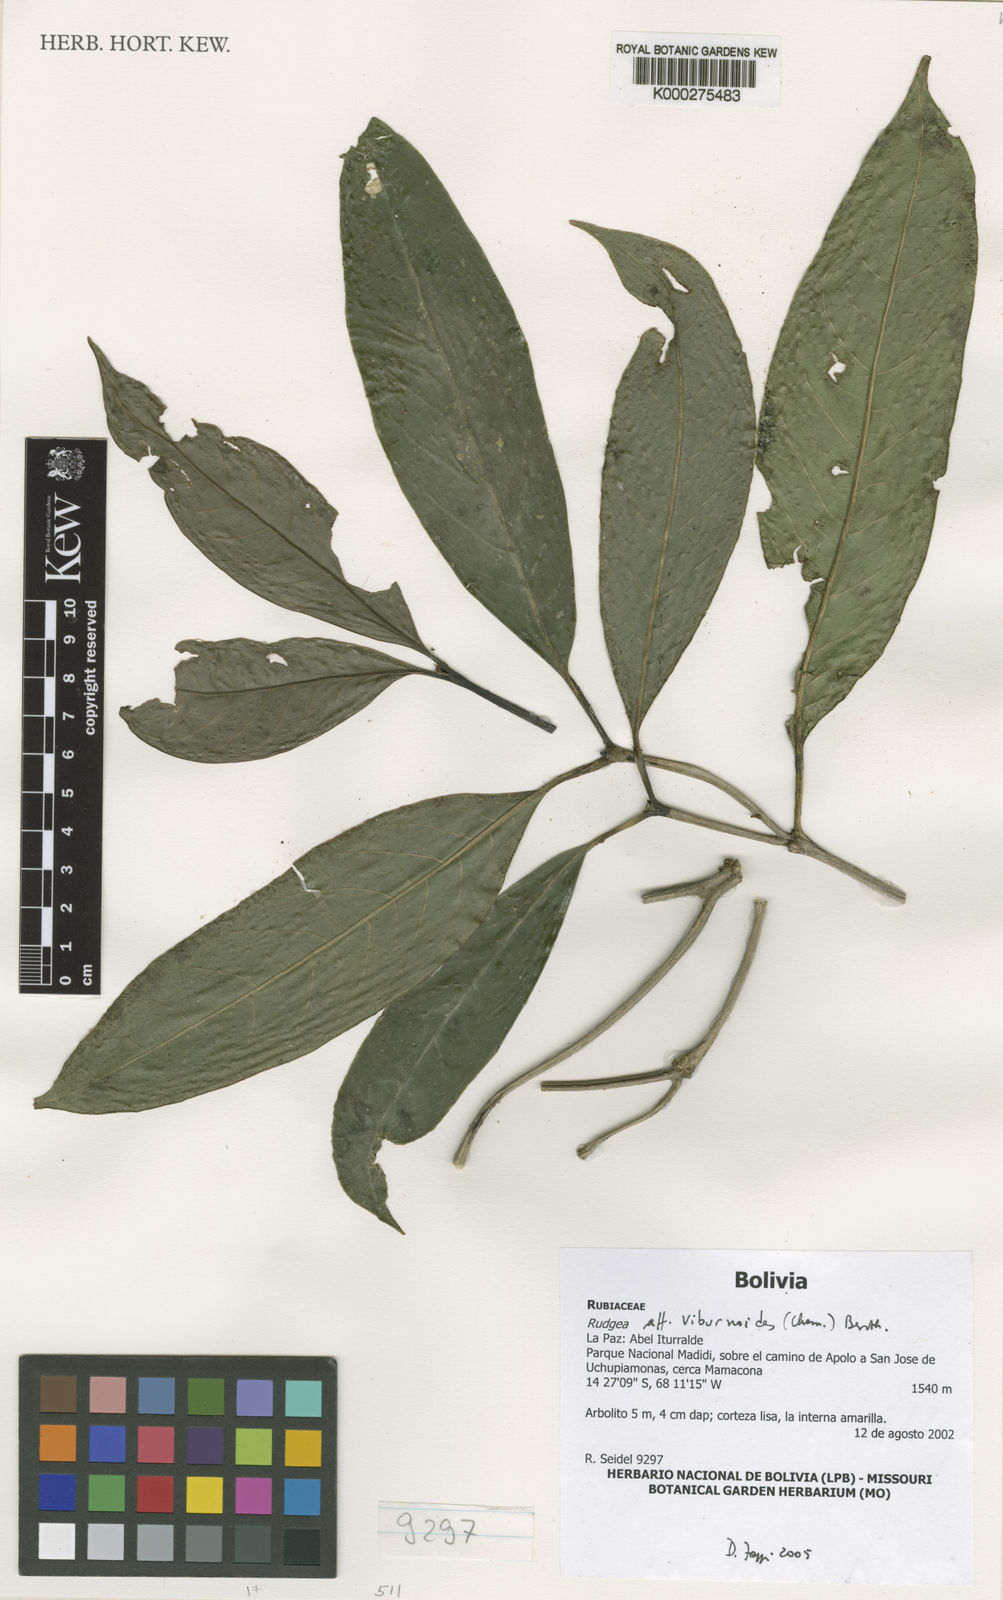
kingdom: Plantae
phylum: Tracheophyta
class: Magnoliopsida
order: Gentianales
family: Rubiaceae
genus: Rudgea
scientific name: Rudgea viburnoides
